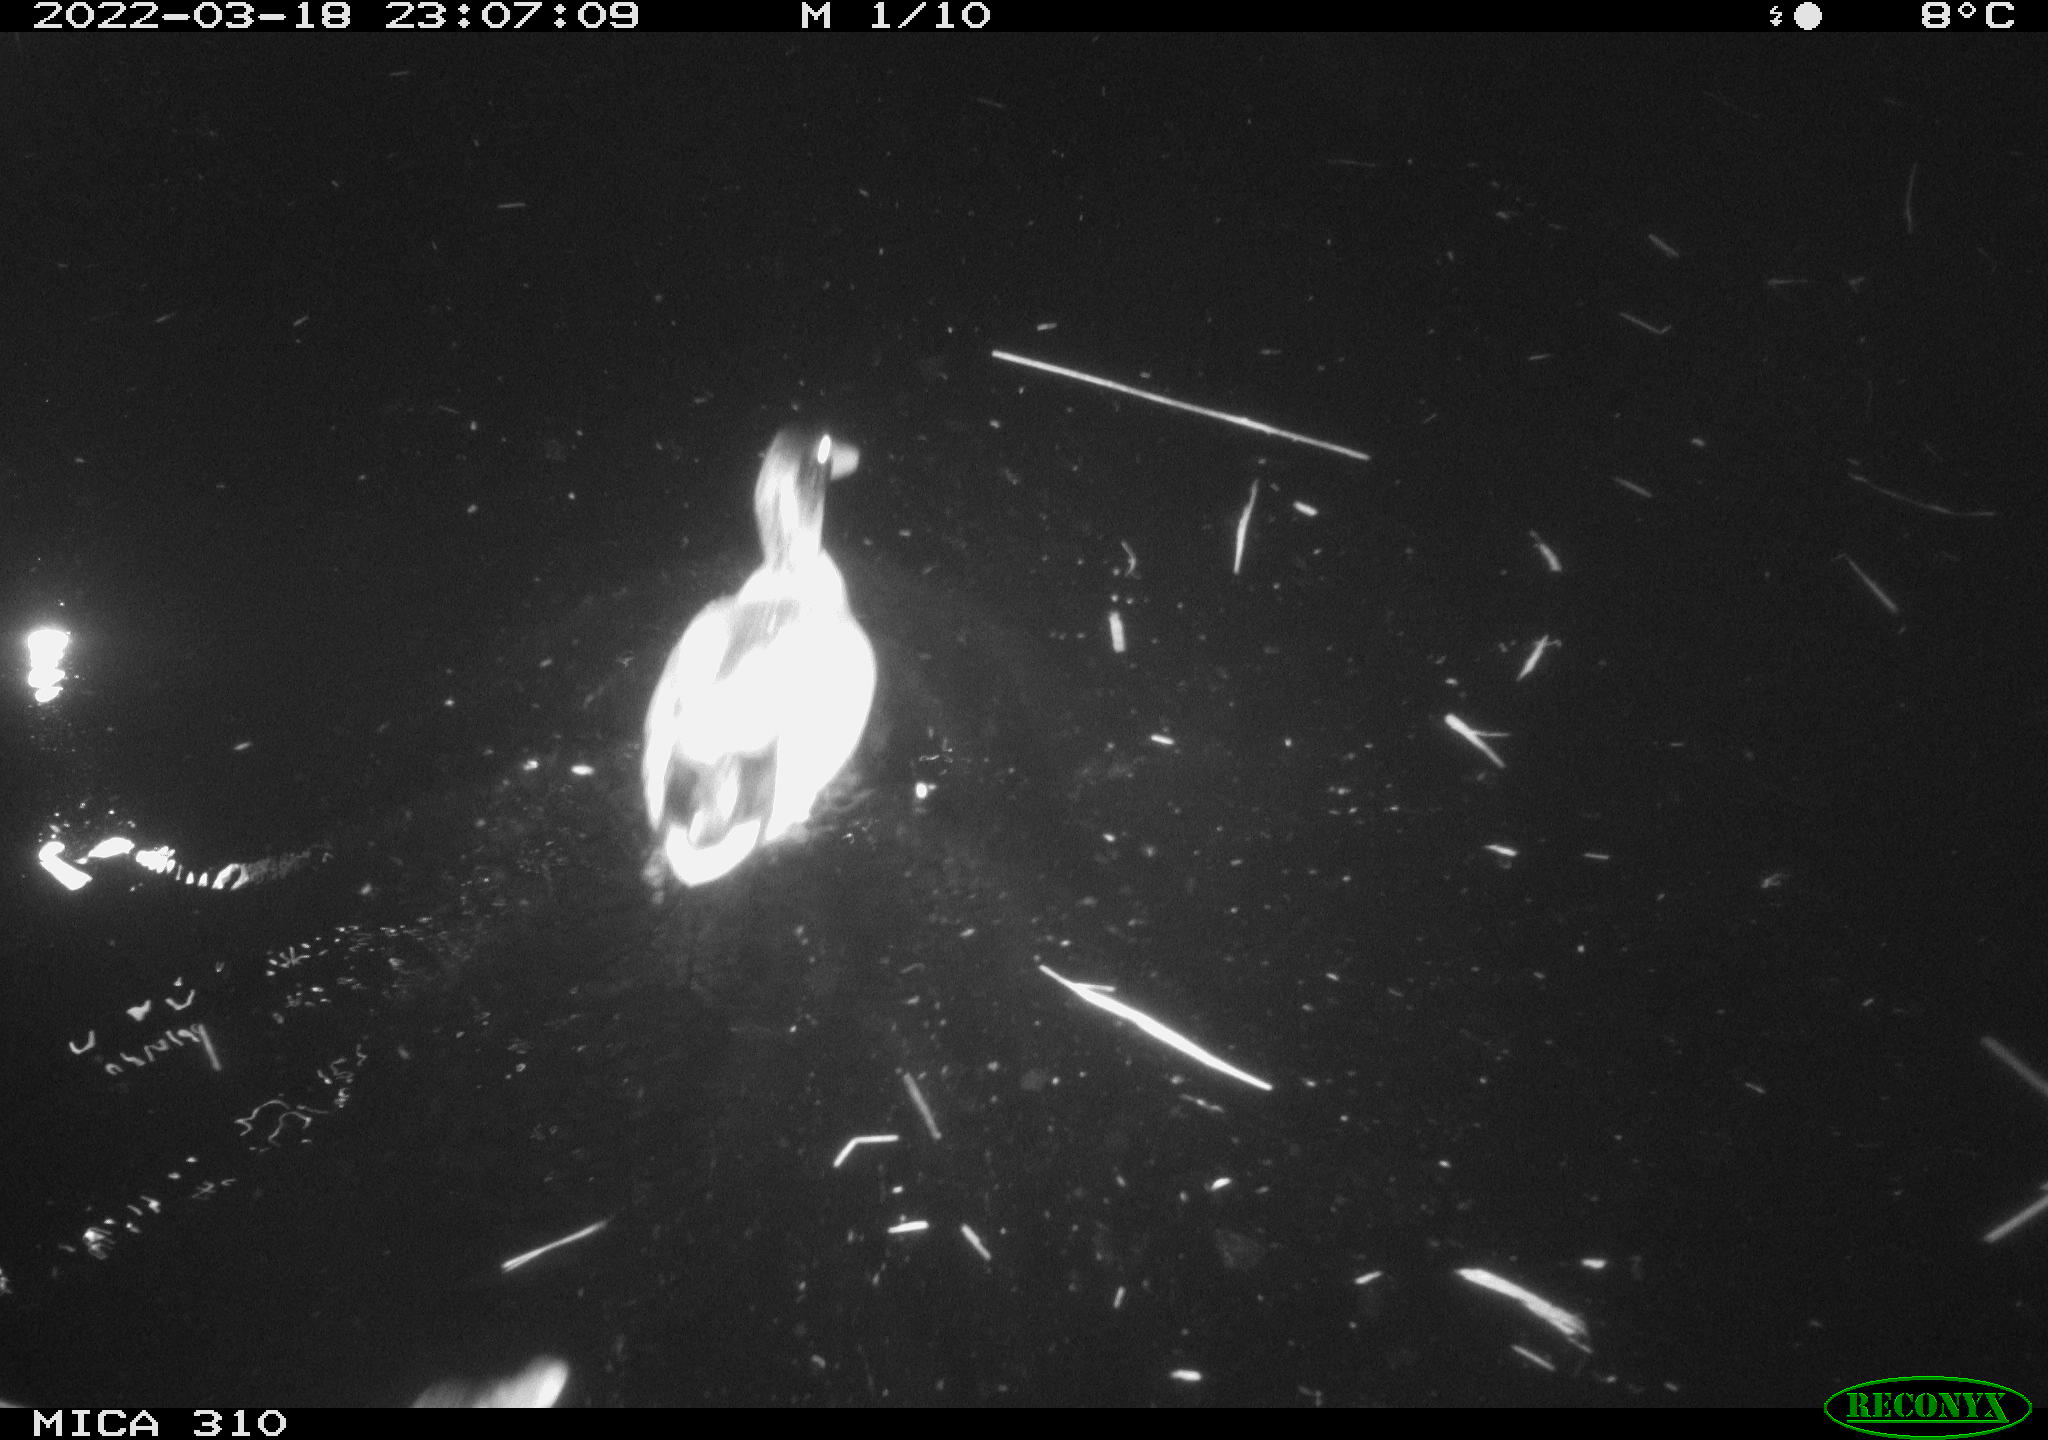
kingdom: Animalia
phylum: Chordata
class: Aves
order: Anseriformes
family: Anatidae
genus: Anas
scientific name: Anas platyrhynchos
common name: Mallard
